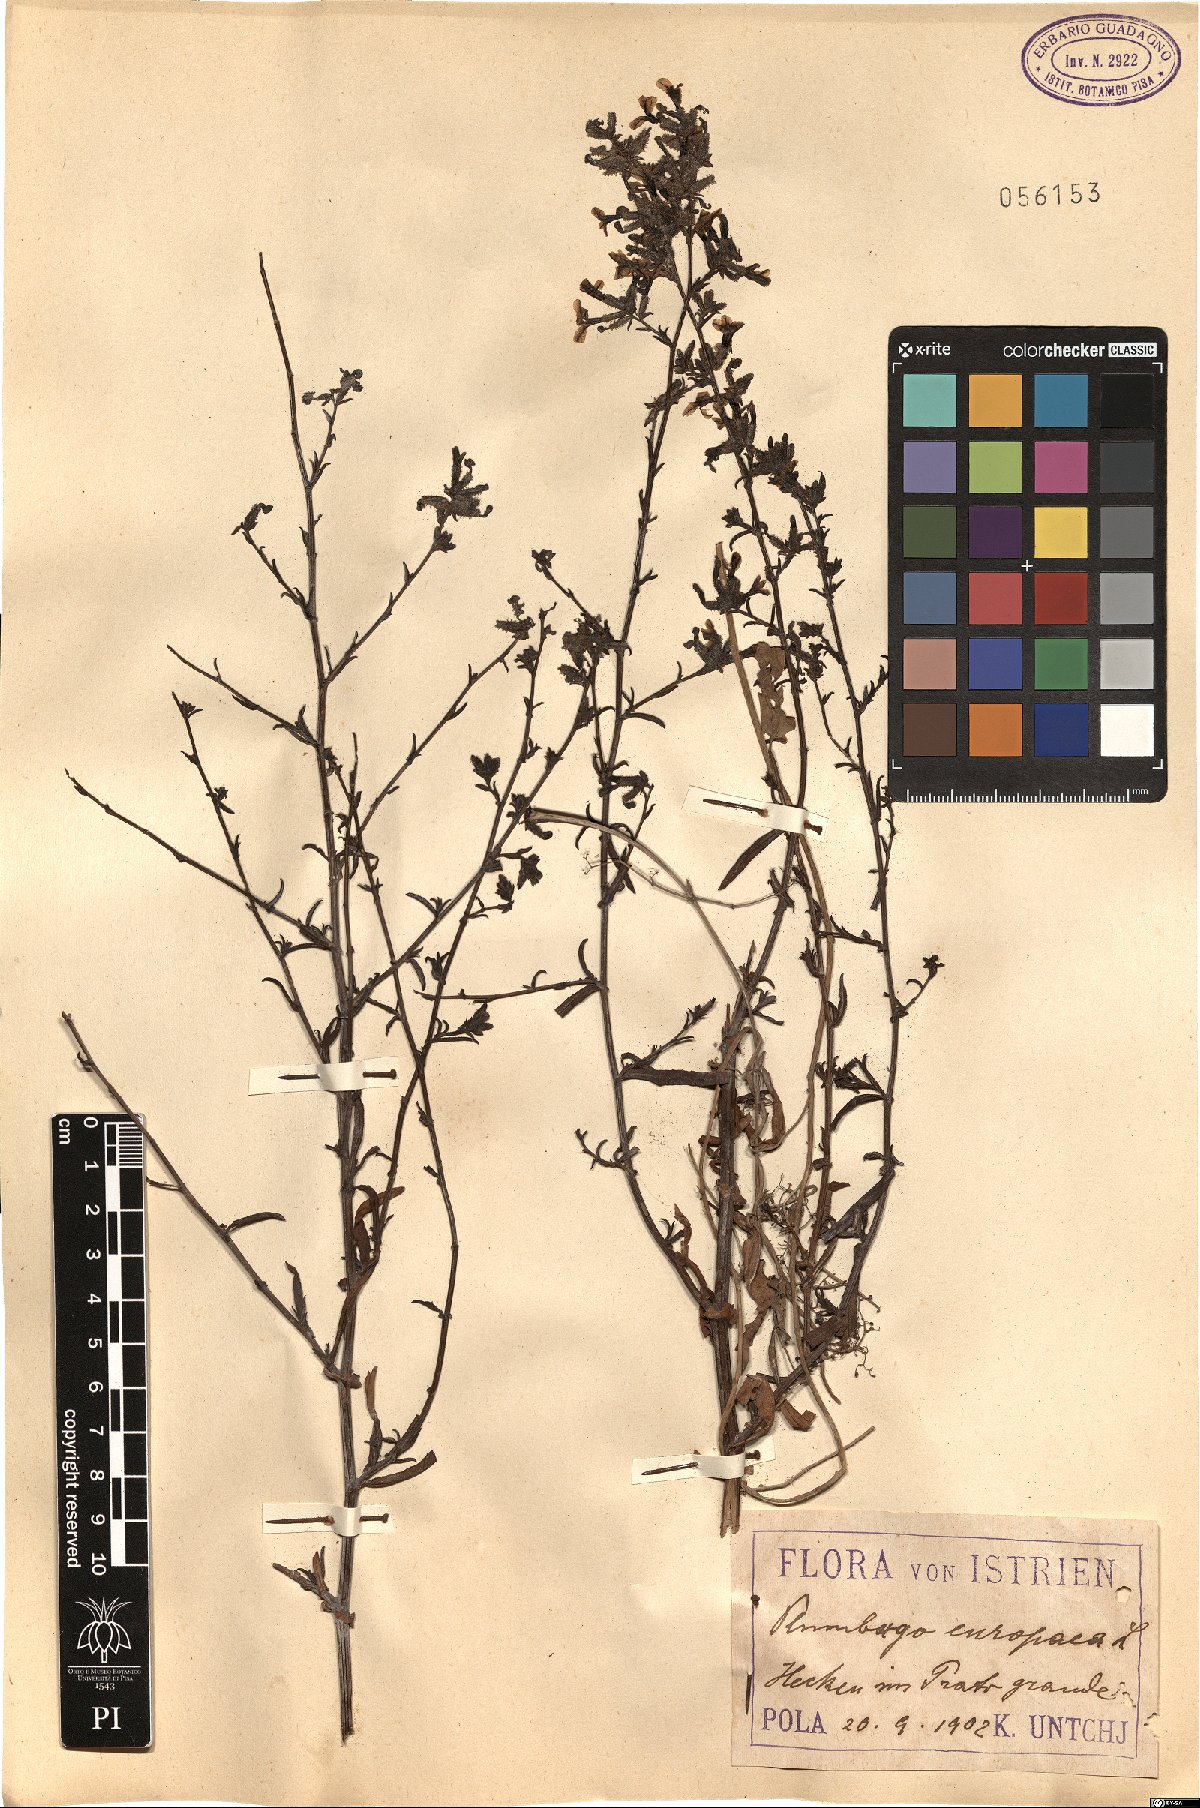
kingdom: Plantae
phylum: Tracheophyta
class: Magnoliopsida
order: Caryophyllales
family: Plumbaginaceae
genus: Plumbago
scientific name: Plumbago europaea
